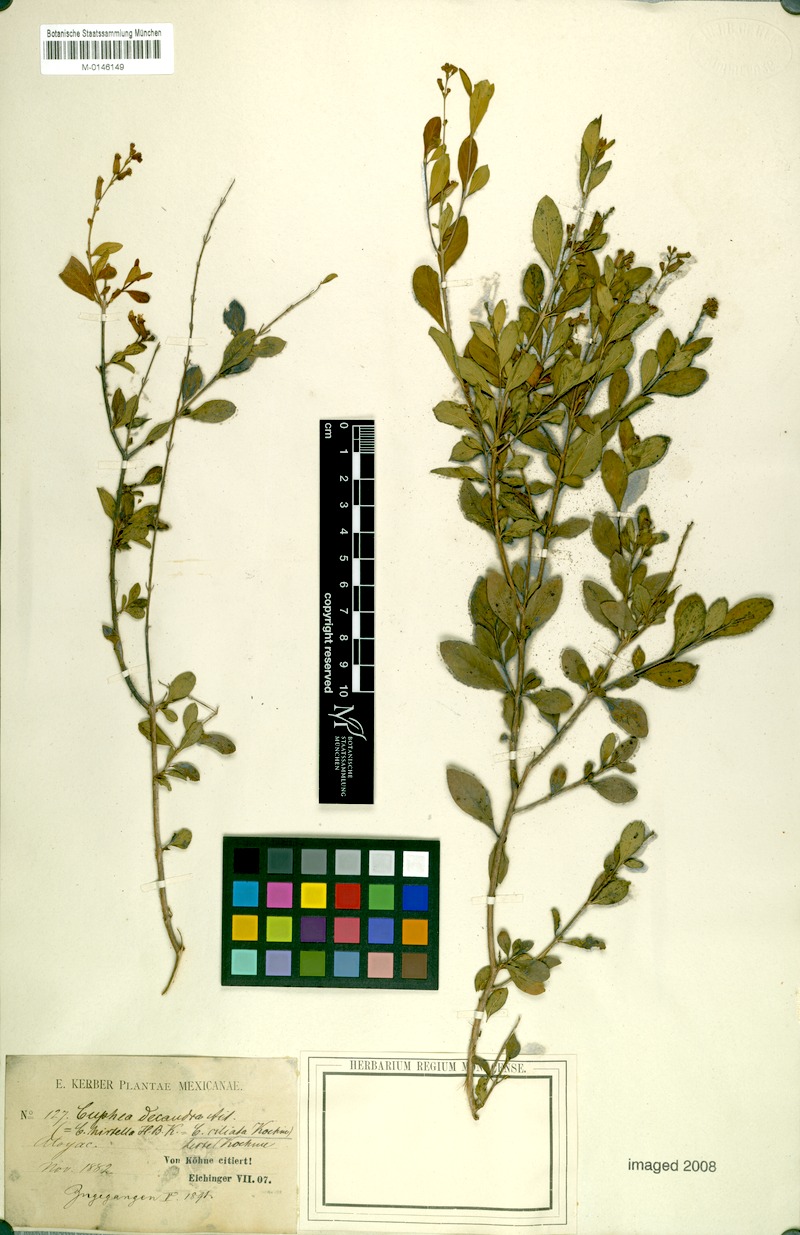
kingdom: Plantae
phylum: Tracheophyta
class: Magnoliopsida
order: Myrtales
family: Lythraceae
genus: Cuphea
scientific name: Cuphea micropetala
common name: Candycorn-plant
